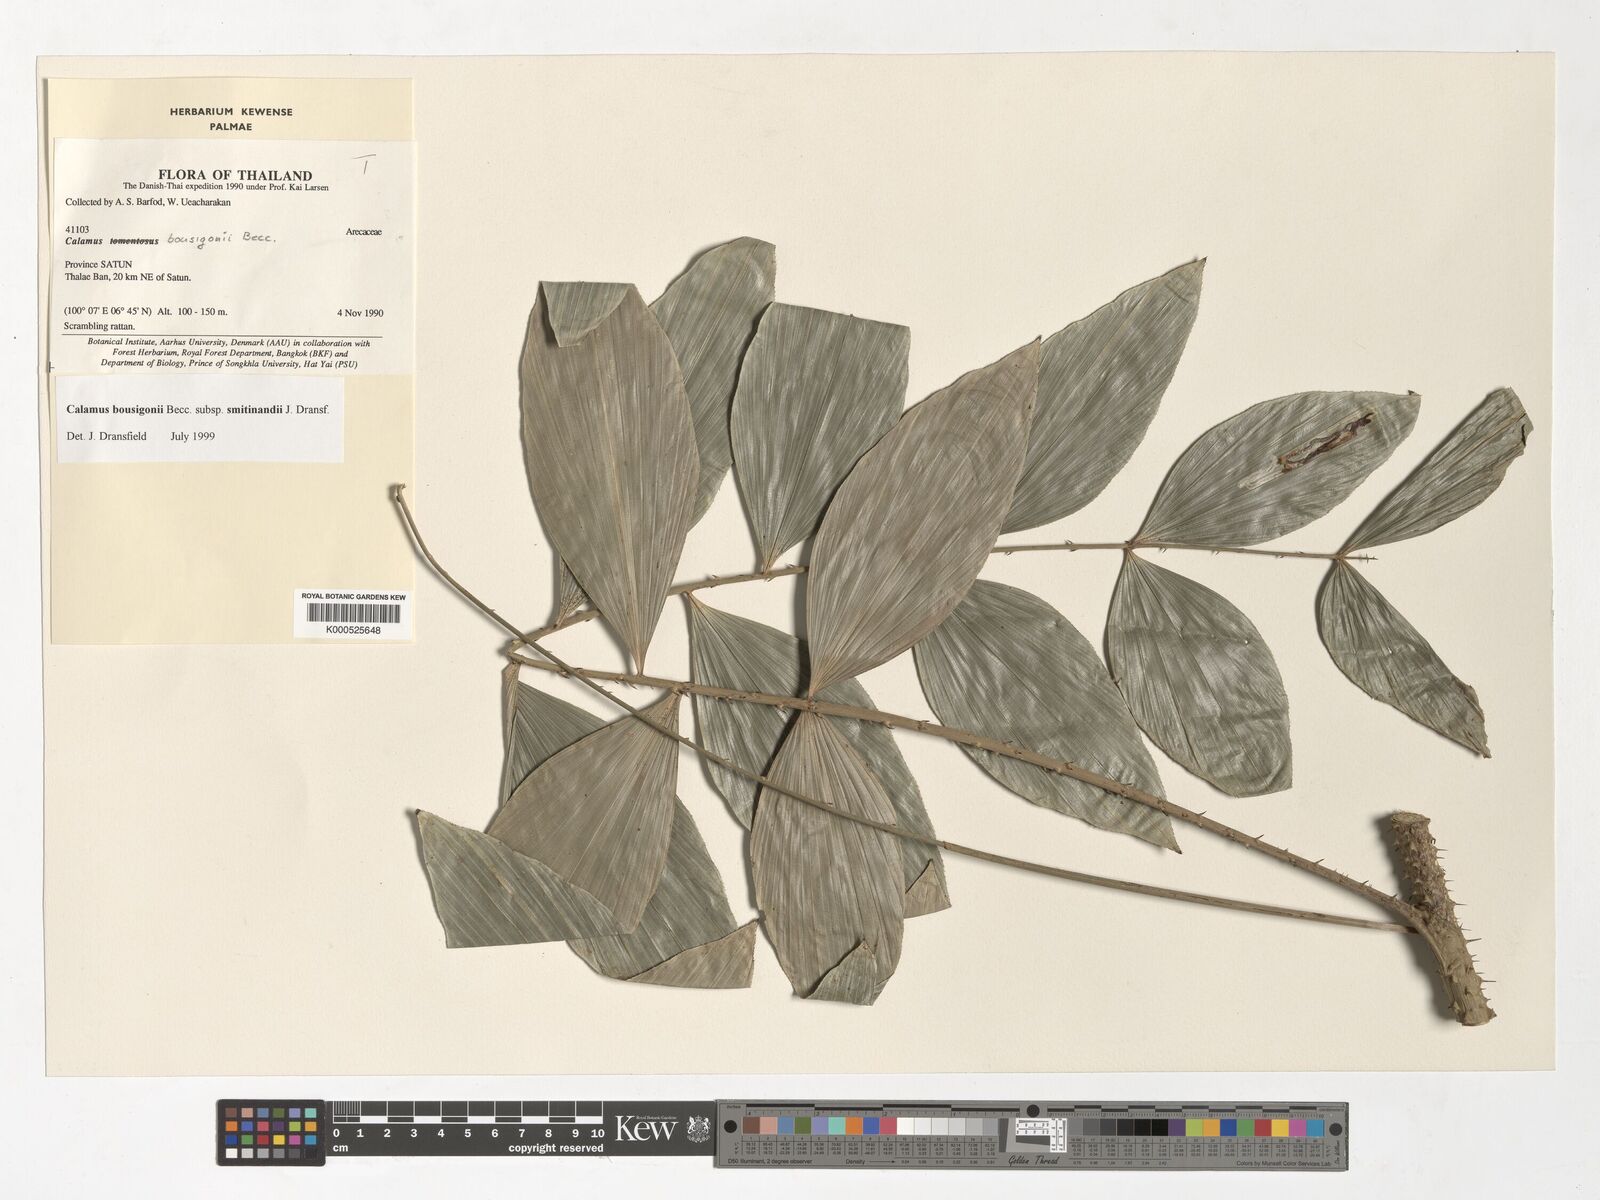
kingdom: Plantae
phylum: Tracheophyta
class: Liliopsida
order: Arecales
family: Arecaceae
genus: Calamus
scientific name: Calamus smitinandii
